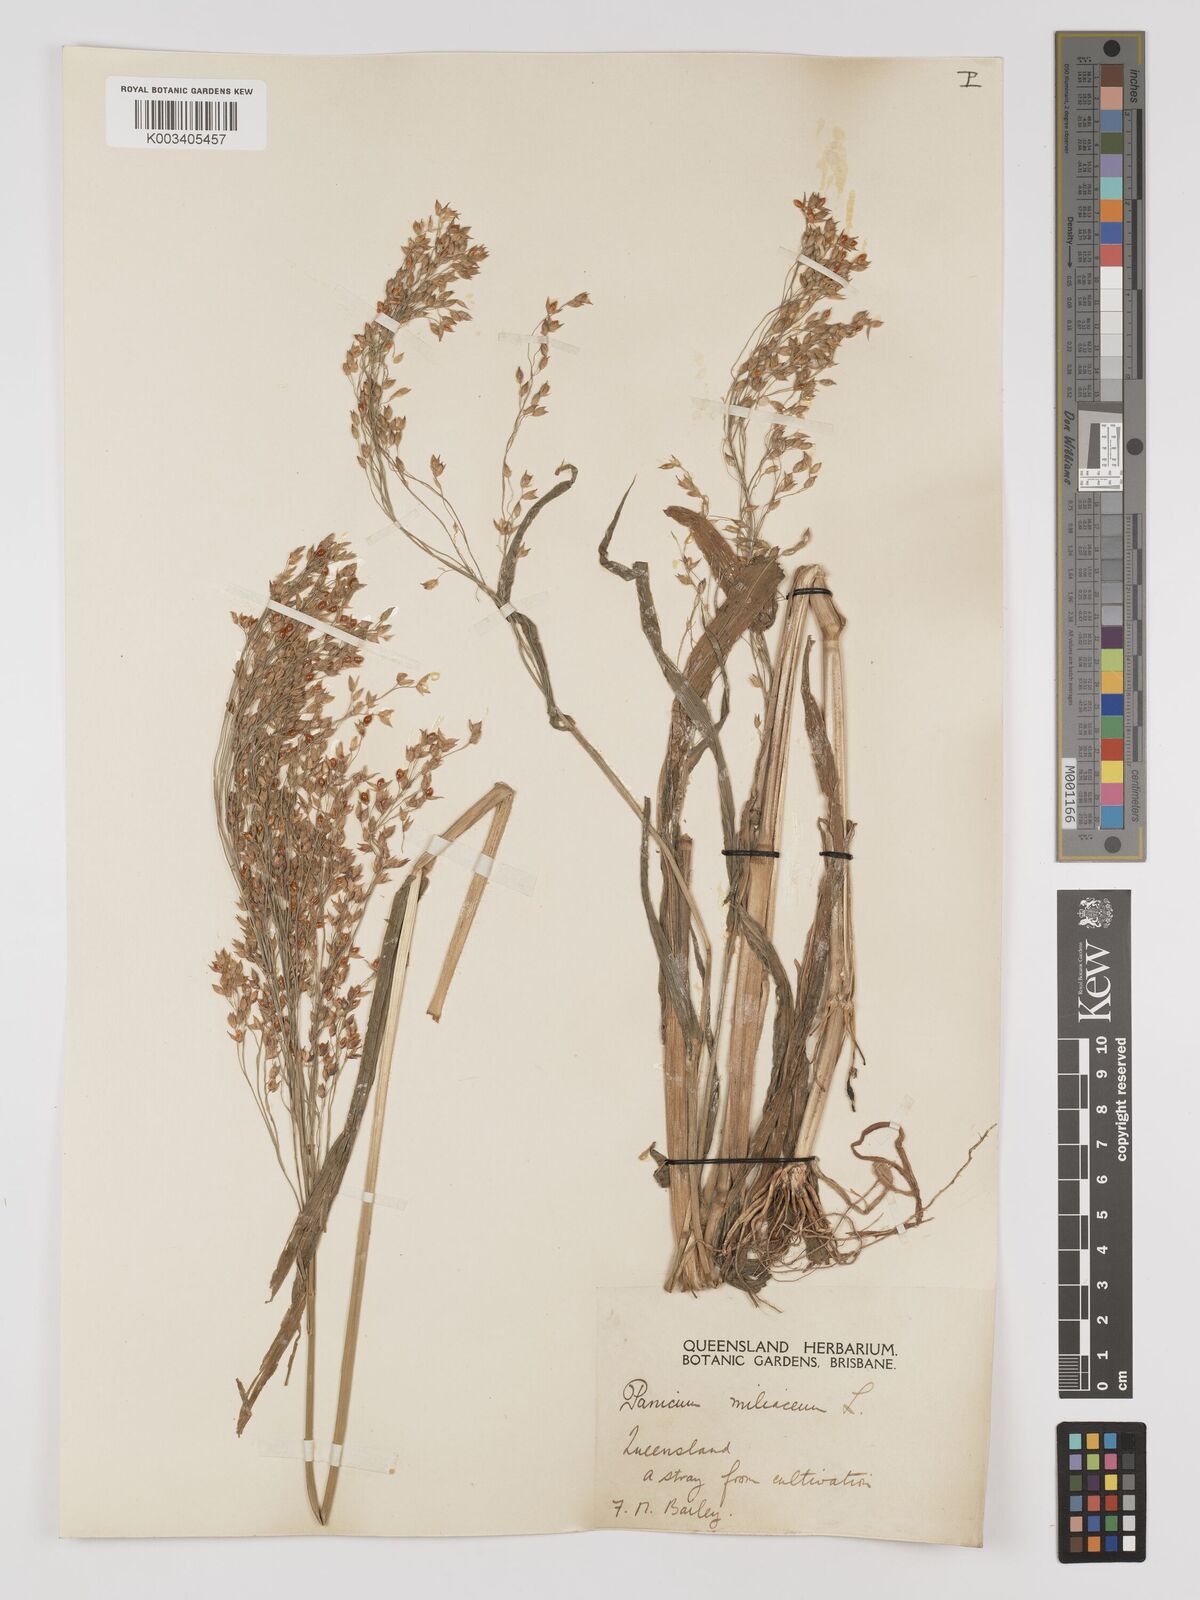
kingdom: Plantae
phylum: Tracheophyta
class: Liliopsida
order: Poales
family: Poaceae
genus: Panicum
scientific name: Panicum miliaceum
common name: Common millet
